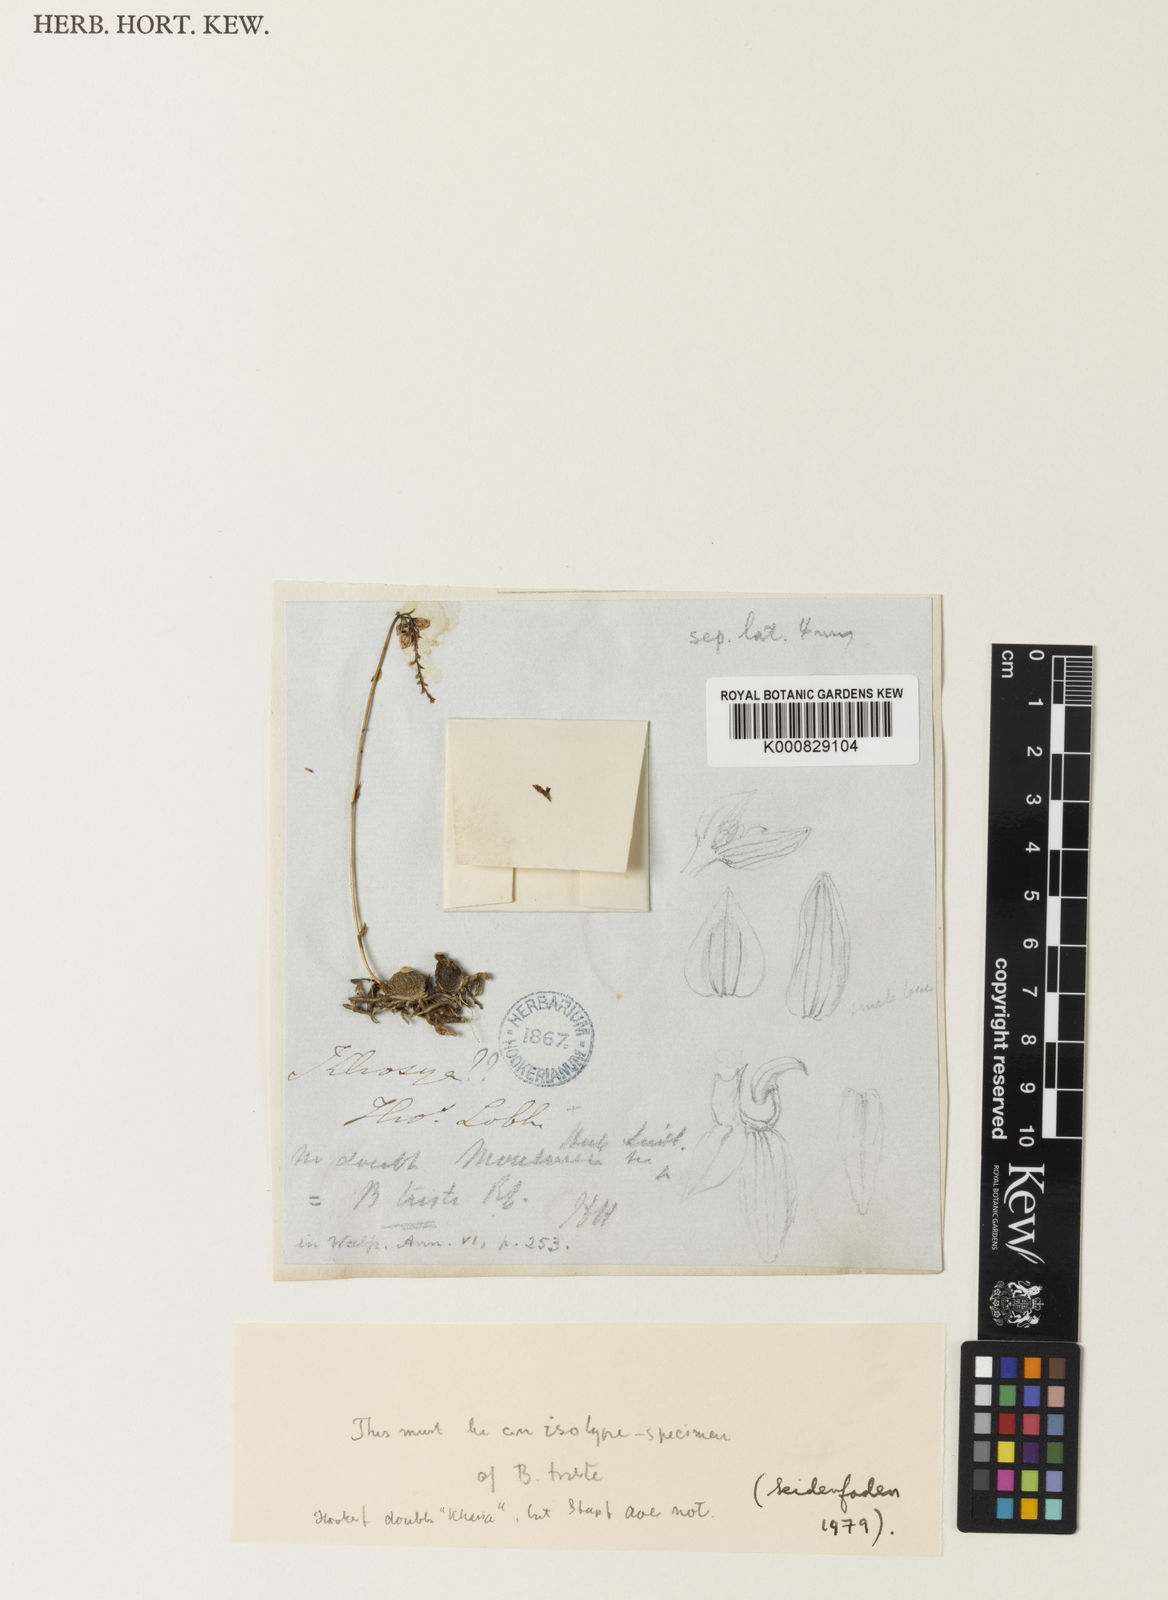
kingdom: Plantae
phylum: Tracheophyta
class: Liliopsida
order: Asparagales
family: Orchidaceae
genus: Bulbophyllum
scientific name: Bulbophyllum triste
